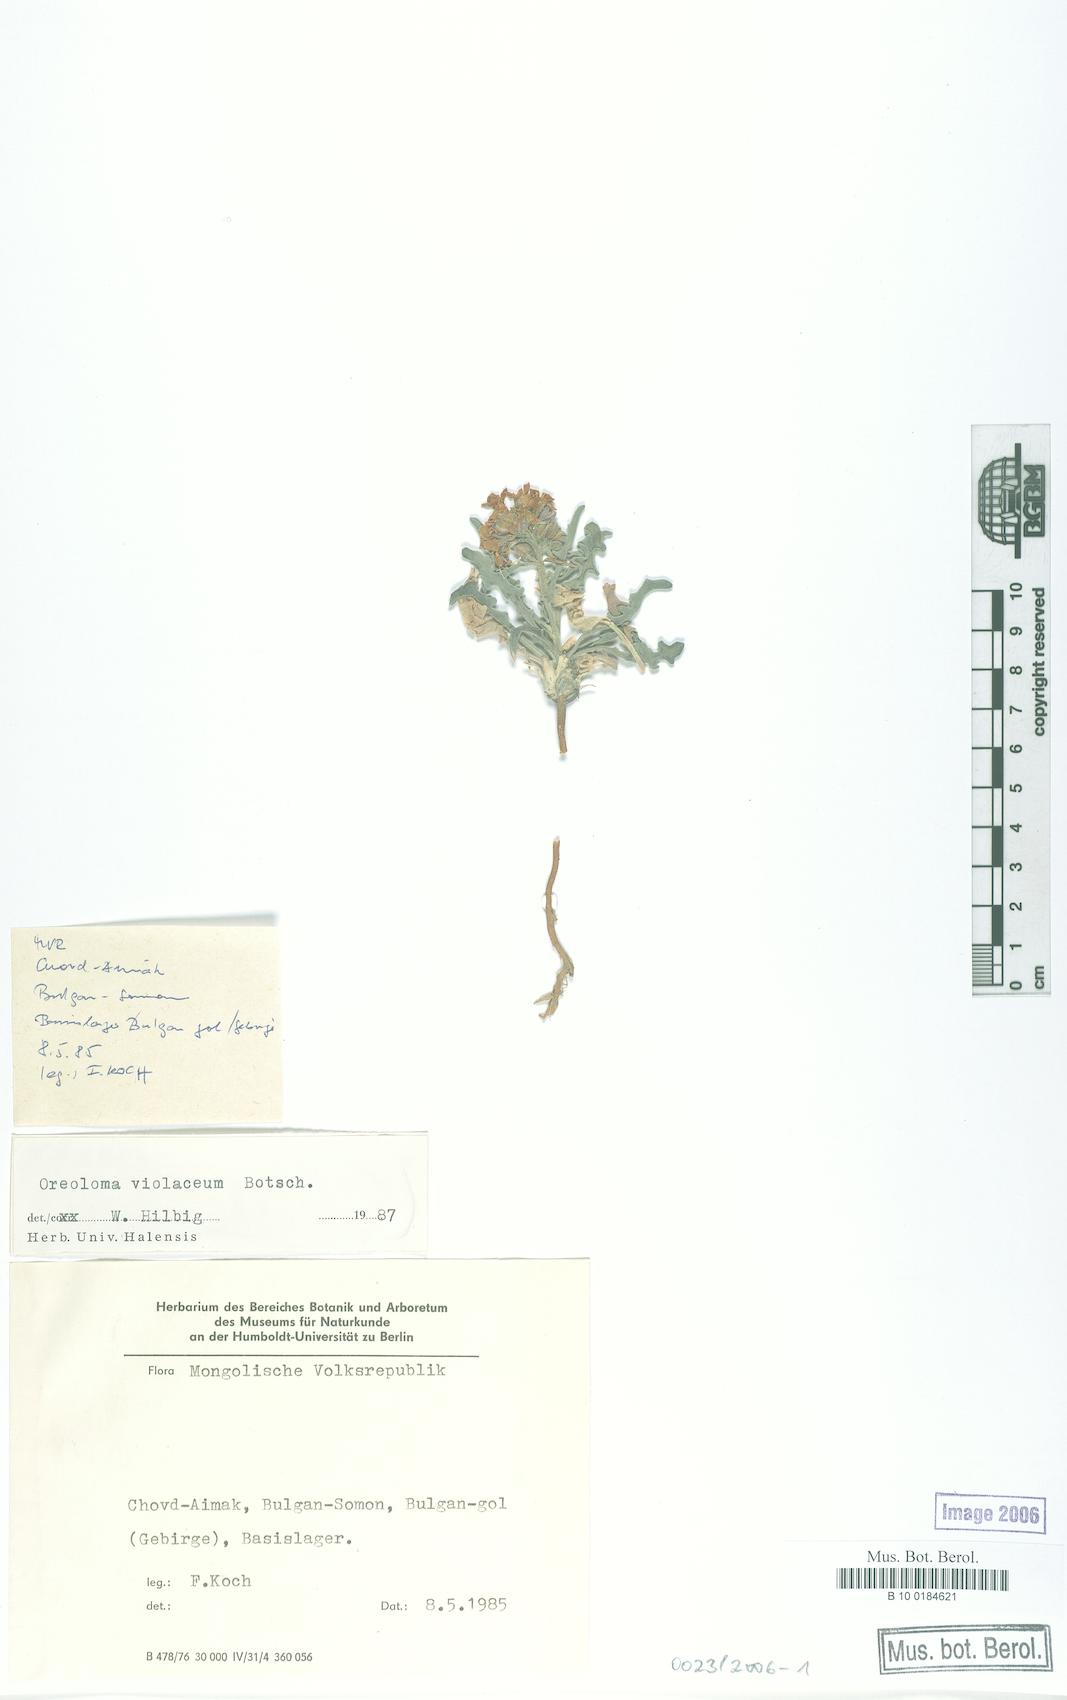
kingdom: Plantae
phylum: Tracheophyta
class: Magnoliopsida
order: Brassicales
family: Brassicaceae
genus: Sterigmostemum
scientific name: Sterigmostemum violaceum
